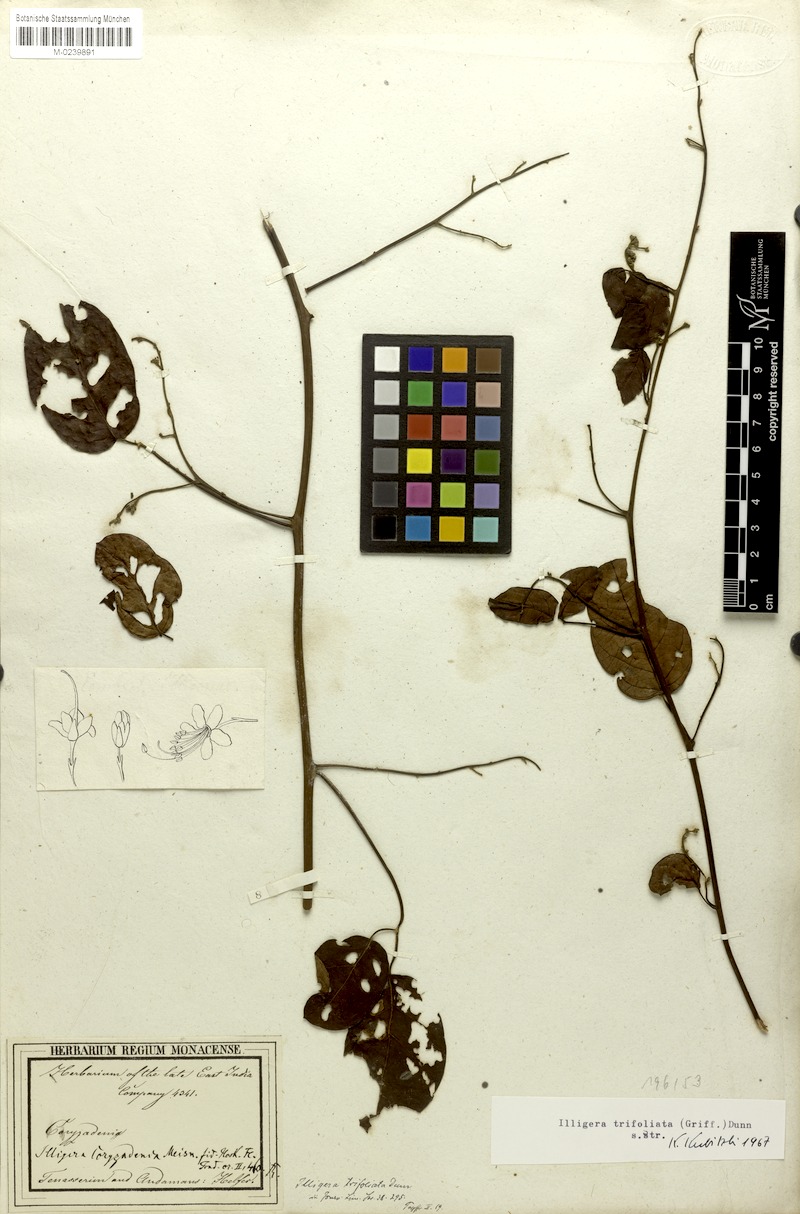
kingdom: Plantae
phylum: Tracheophyta
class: Magnoliopsida
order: Laurales
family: Hernandiaceae
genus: Illigera
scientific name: Illigera trifoliata
